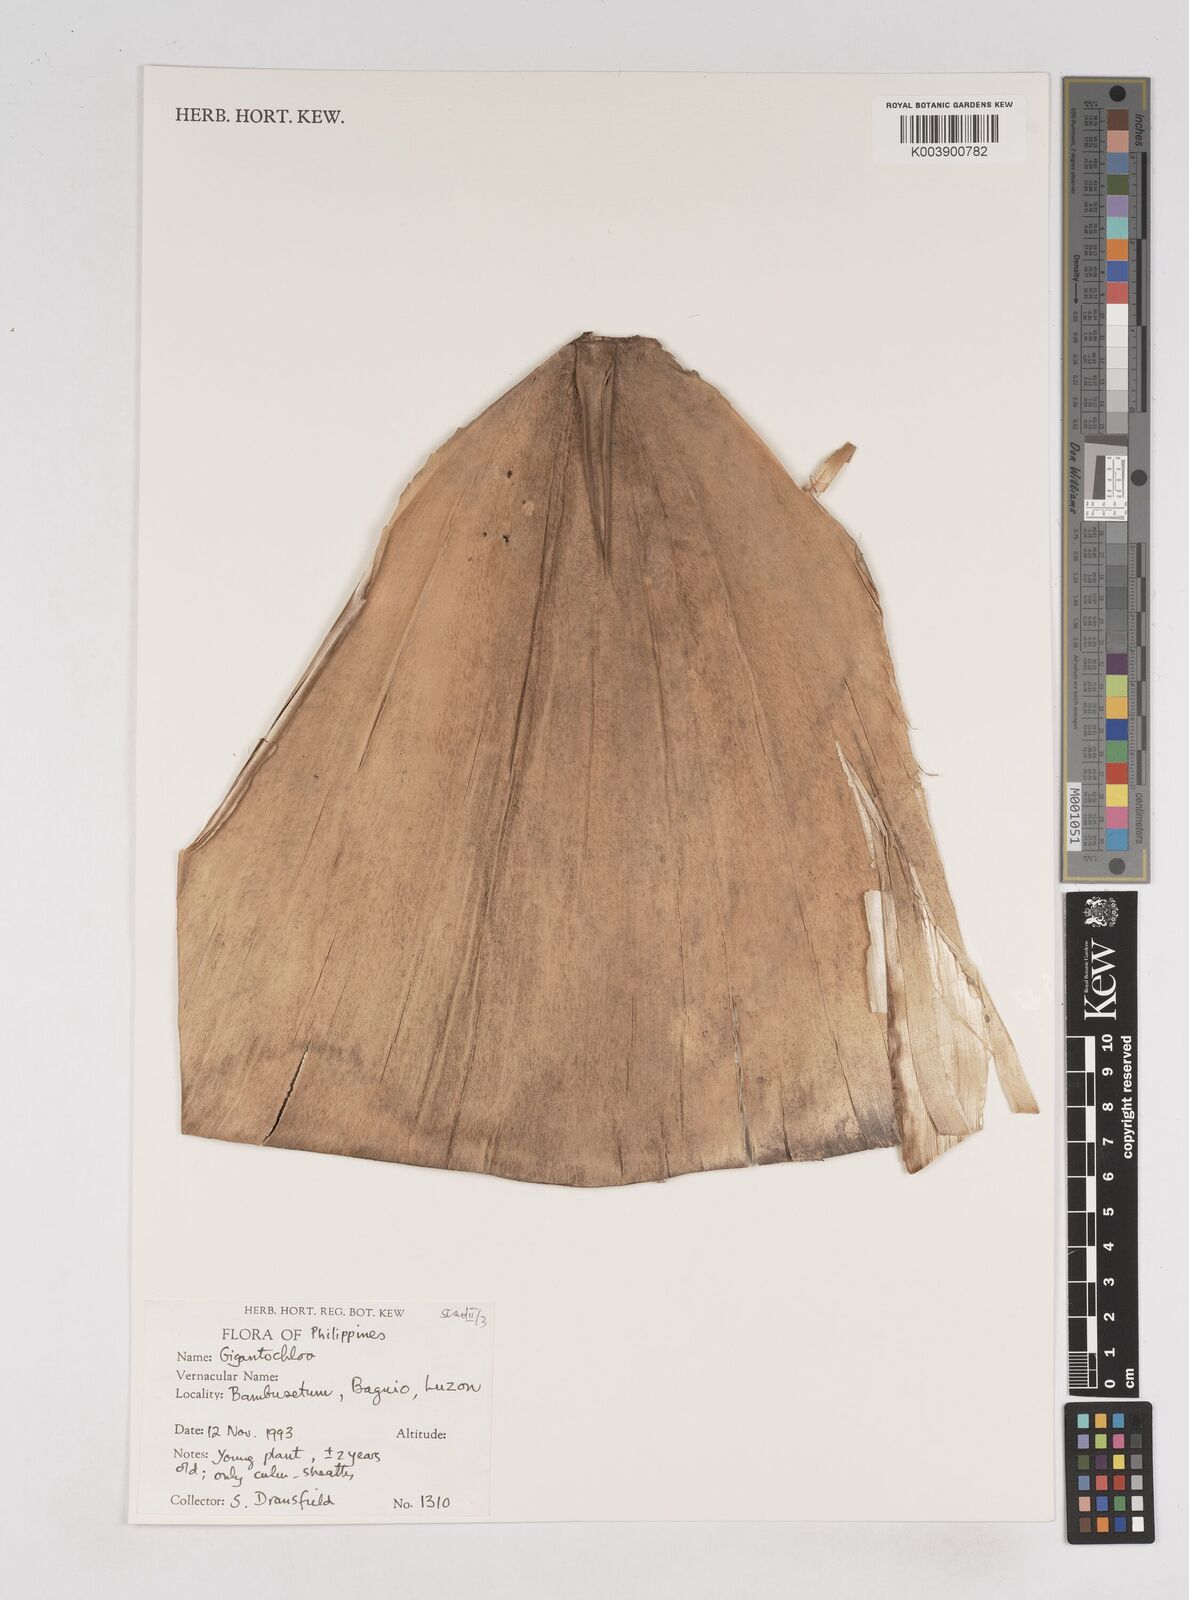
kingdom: Plantae
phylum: Tracheophyta
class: Liliopsida
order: Poales
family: Poaceae
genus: Gigantochloa
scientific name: Gigantochloa
